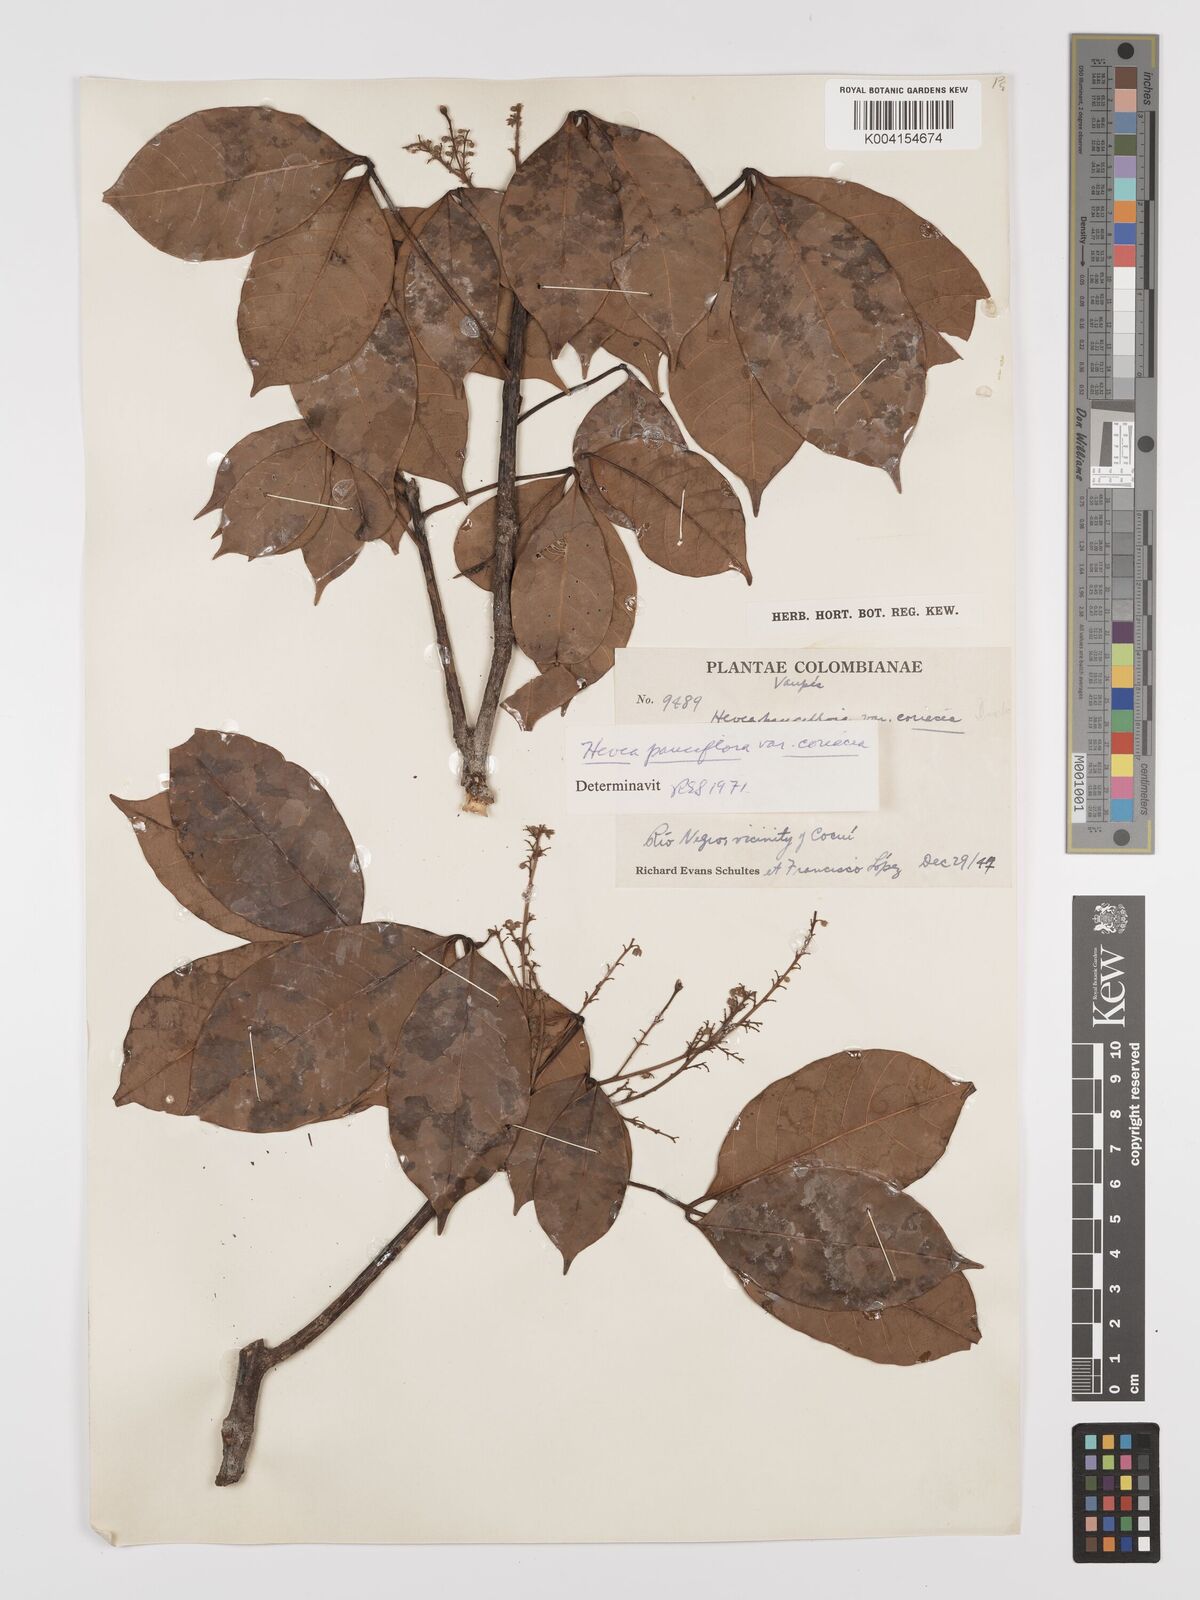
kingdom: Plantae
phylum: Tracheophyta
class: Magnoliopsida
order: Malpighiales
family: Euphorbiaceae
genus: Hevea
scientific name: Hevea pauciflora
